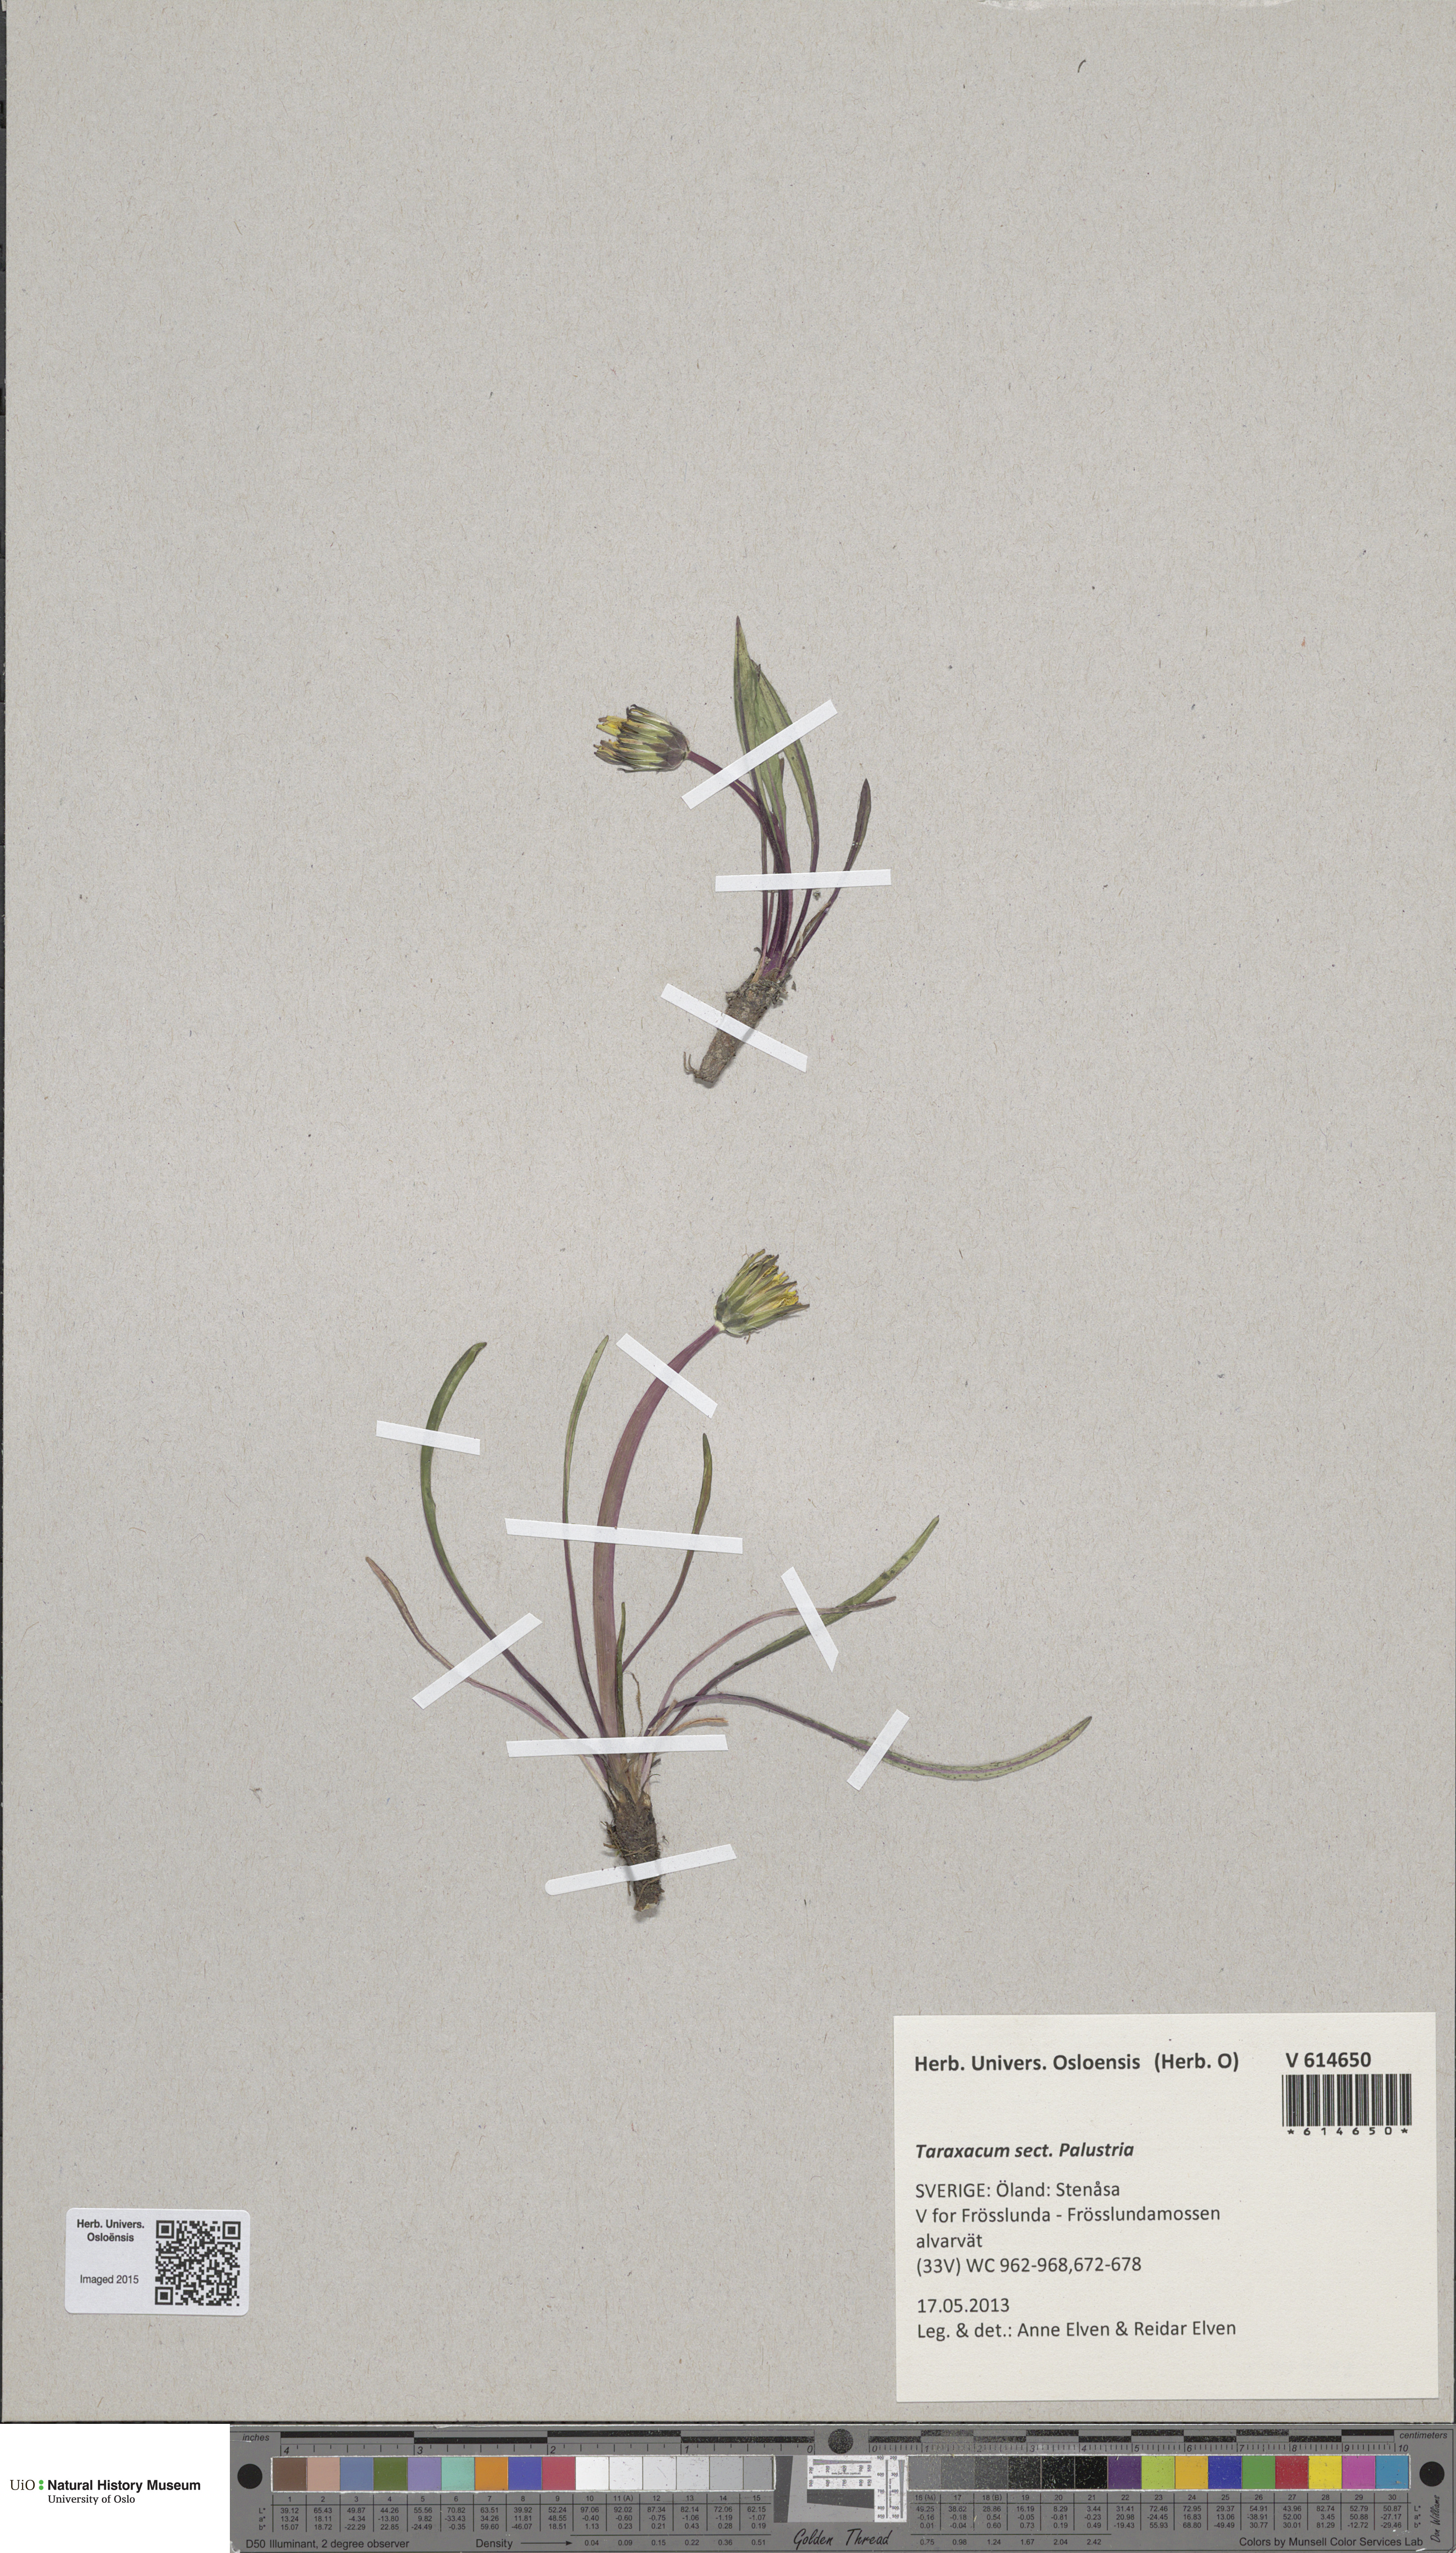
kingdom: Plantae
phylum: Tracheophyta
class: Magnoliopsida
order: Asterales
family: Asteraceae
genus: Taraxacum
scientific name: Taraxacum
